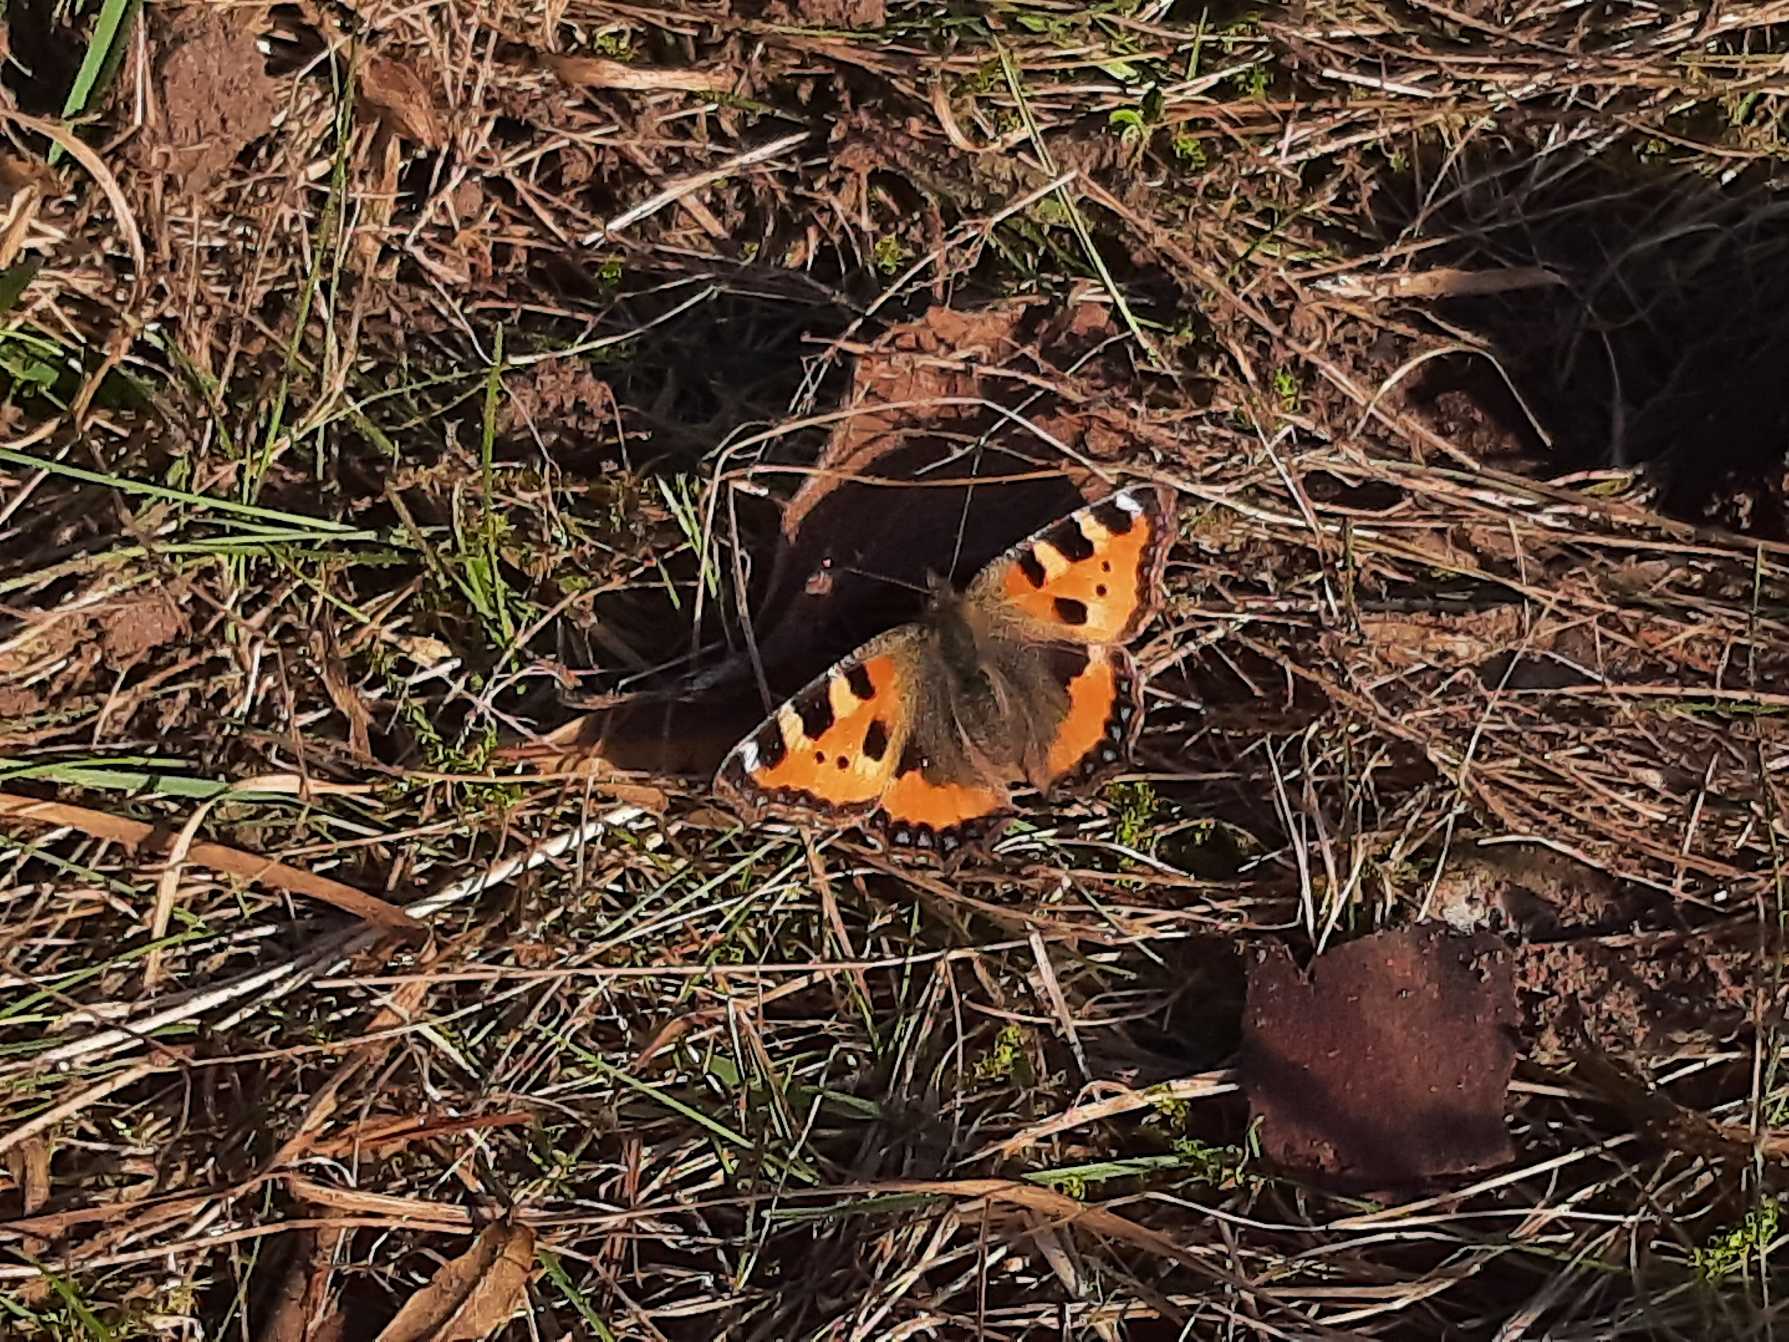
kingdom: Animalia
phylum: Arthropoda
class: Insecta
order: Lepidoptera
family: Nymphalidae
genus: Aglais
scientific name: Aglais urticae
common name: Nældens takvinge
